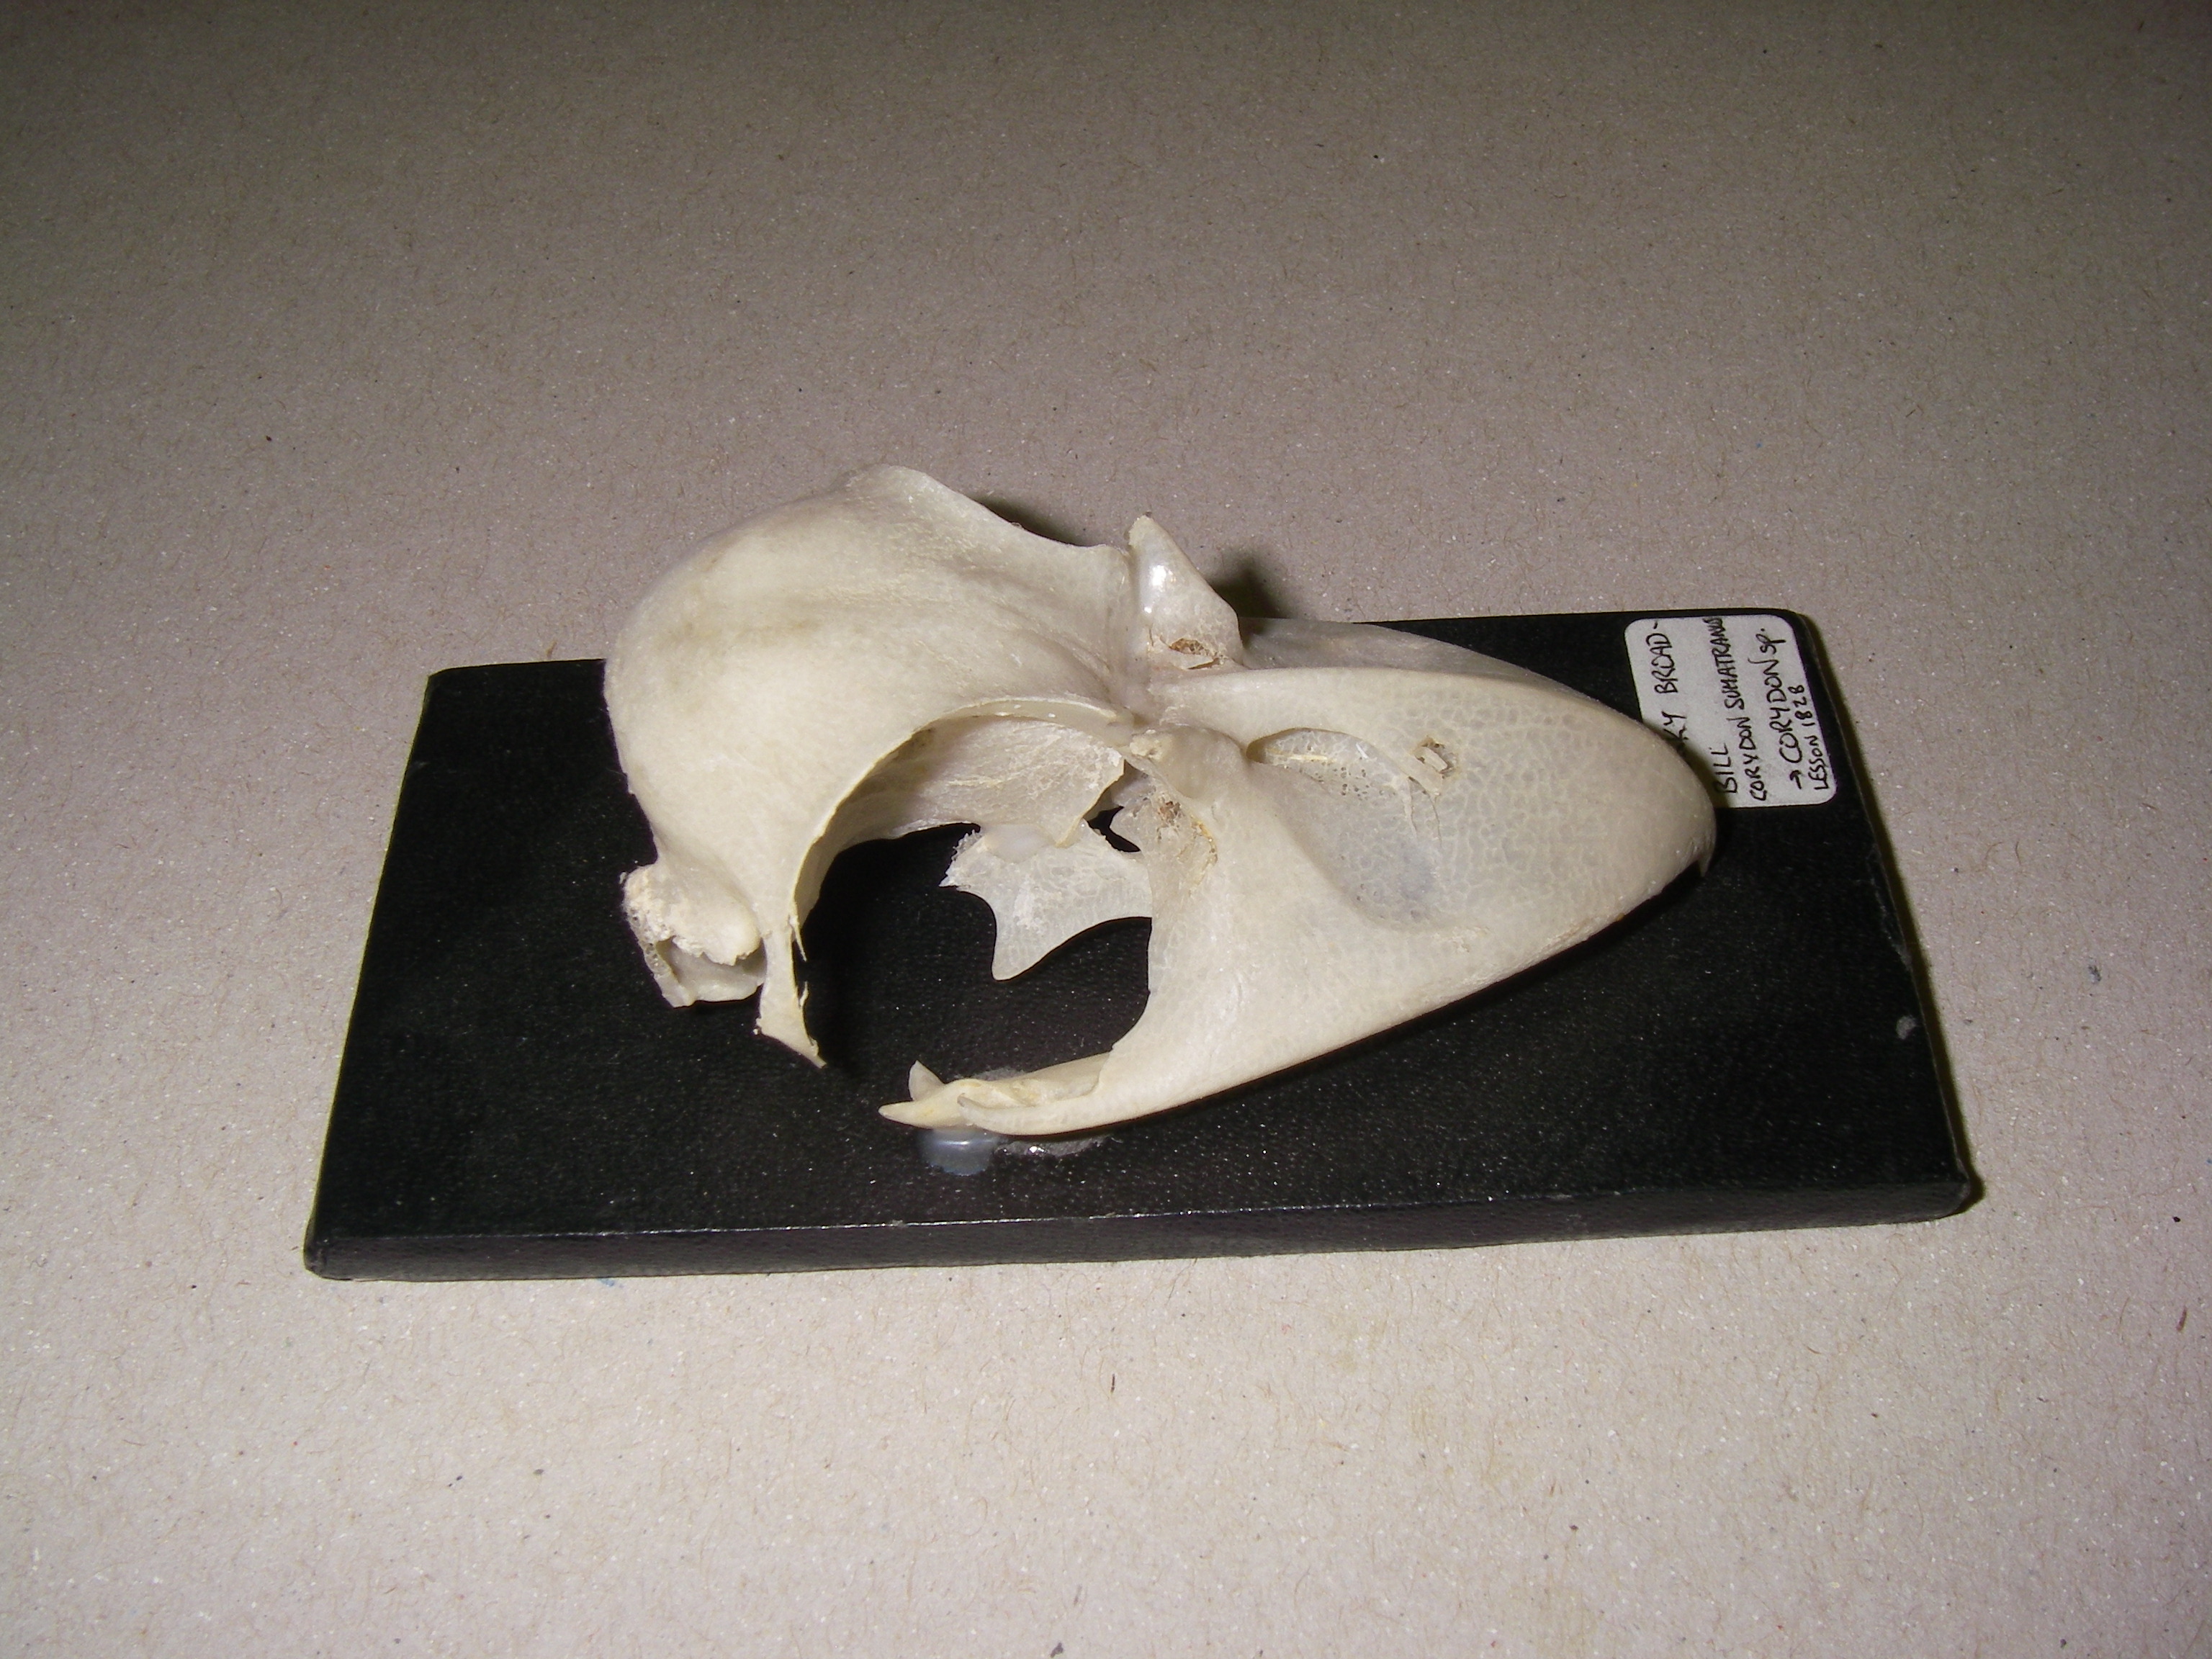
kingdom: Animalia
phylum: Chordata
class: Aves
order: Passeriformes
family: Eurylaimidae
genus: Corydon
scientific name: Corydon sumatranus
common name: Dusky broadbill
